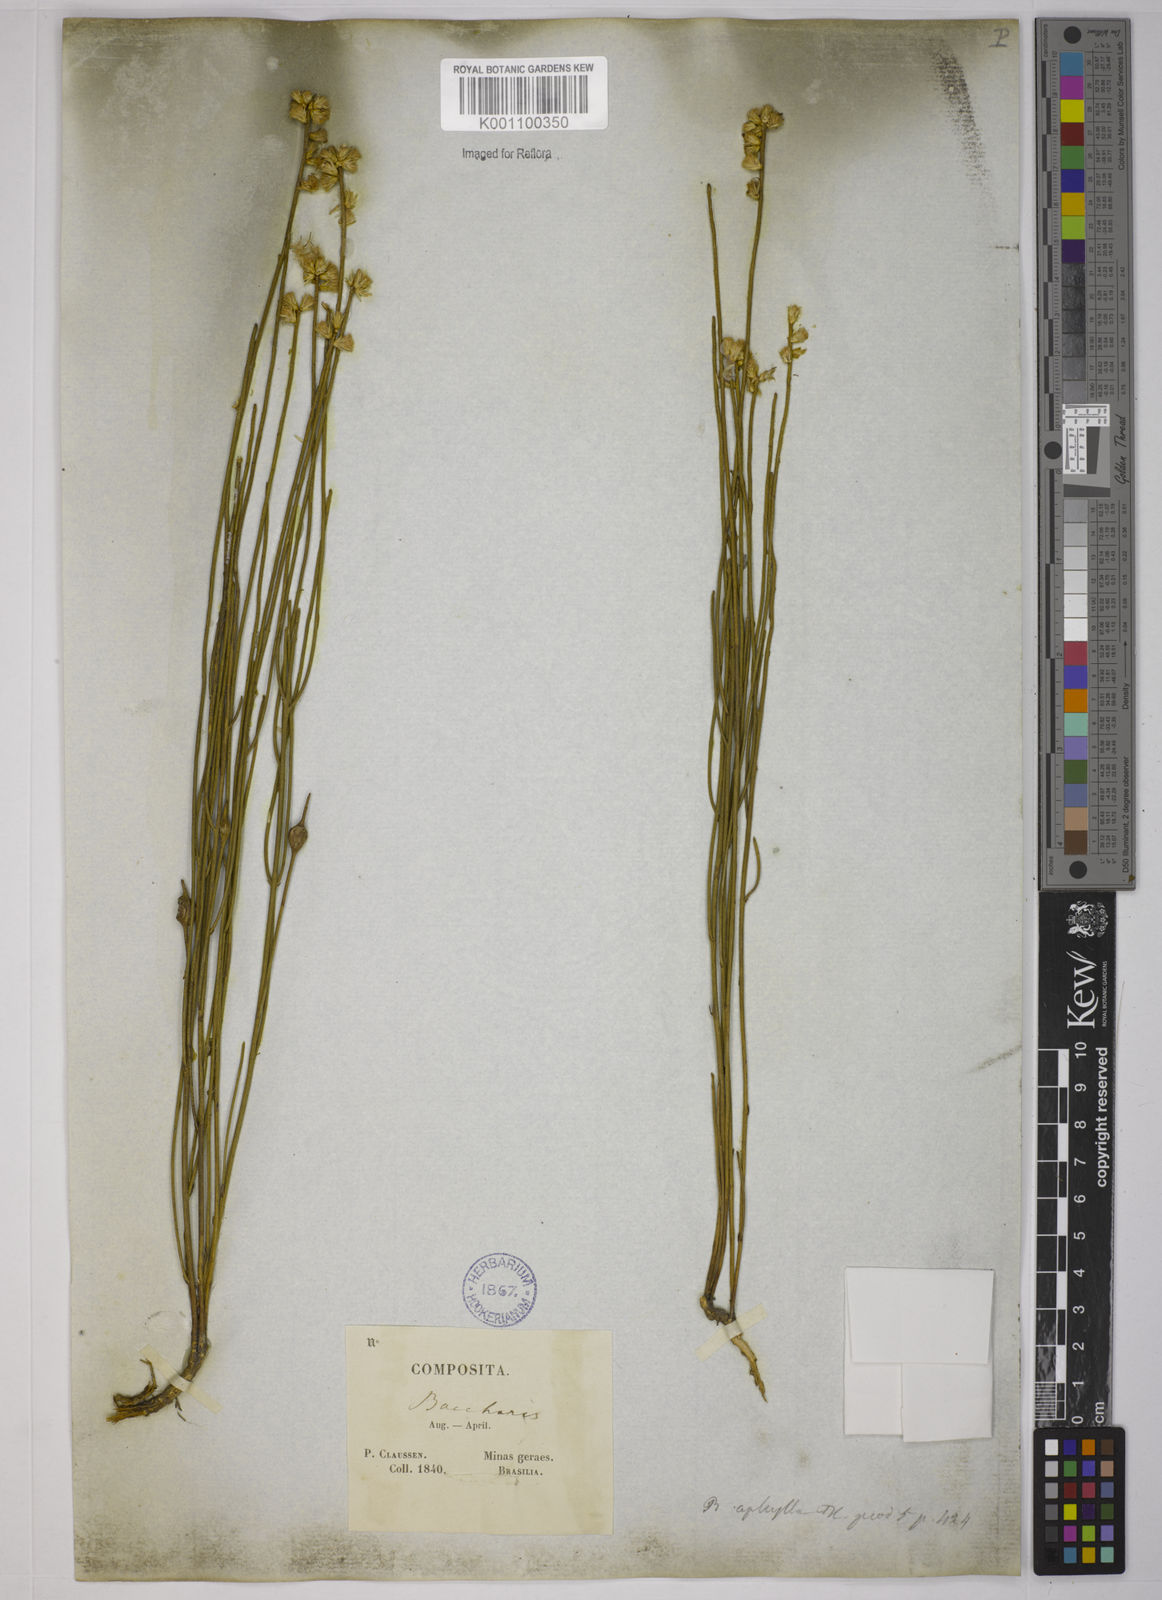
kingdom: Plantae
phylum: Tracheophyta
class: Magnoliopsida
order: Asterales
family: Asteraceae
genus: Baccharis
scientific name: Baccharis aphylla
